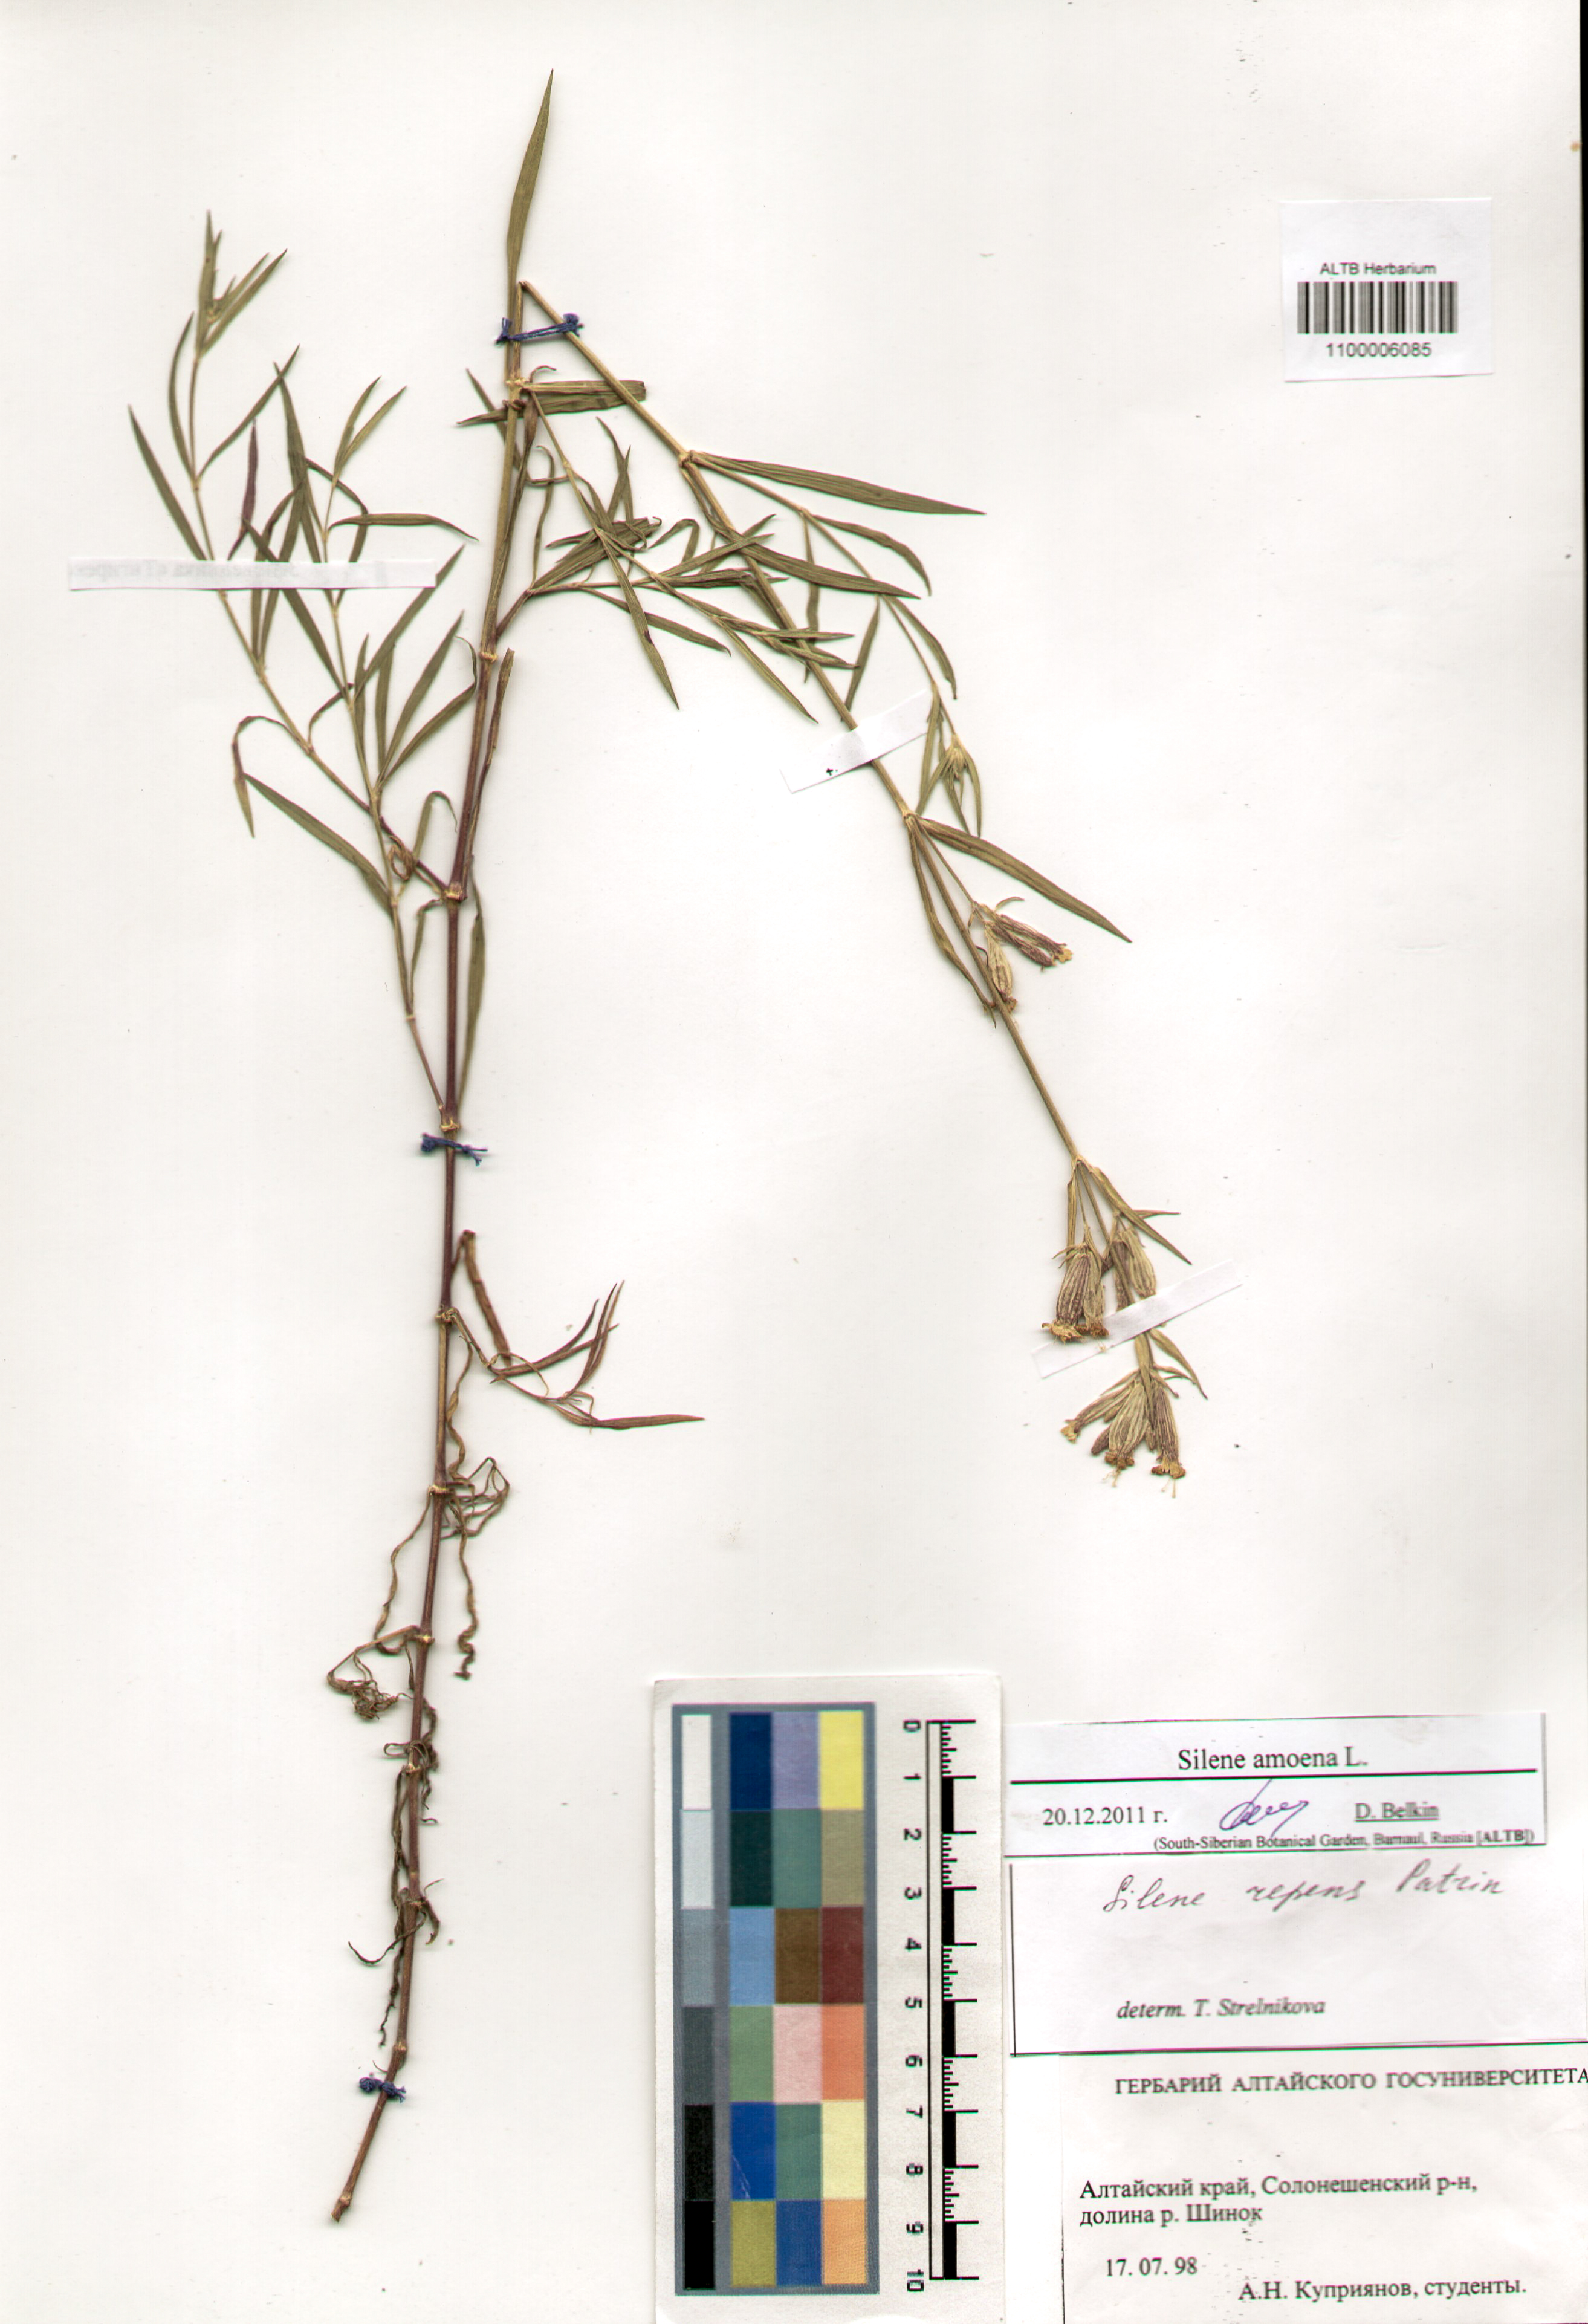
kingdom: Plantae
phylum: Tracheophyta
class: Magnoliopsida
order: Caryophyllales
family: Caryophyllaceae
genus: Silene
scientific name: Silene amoena
